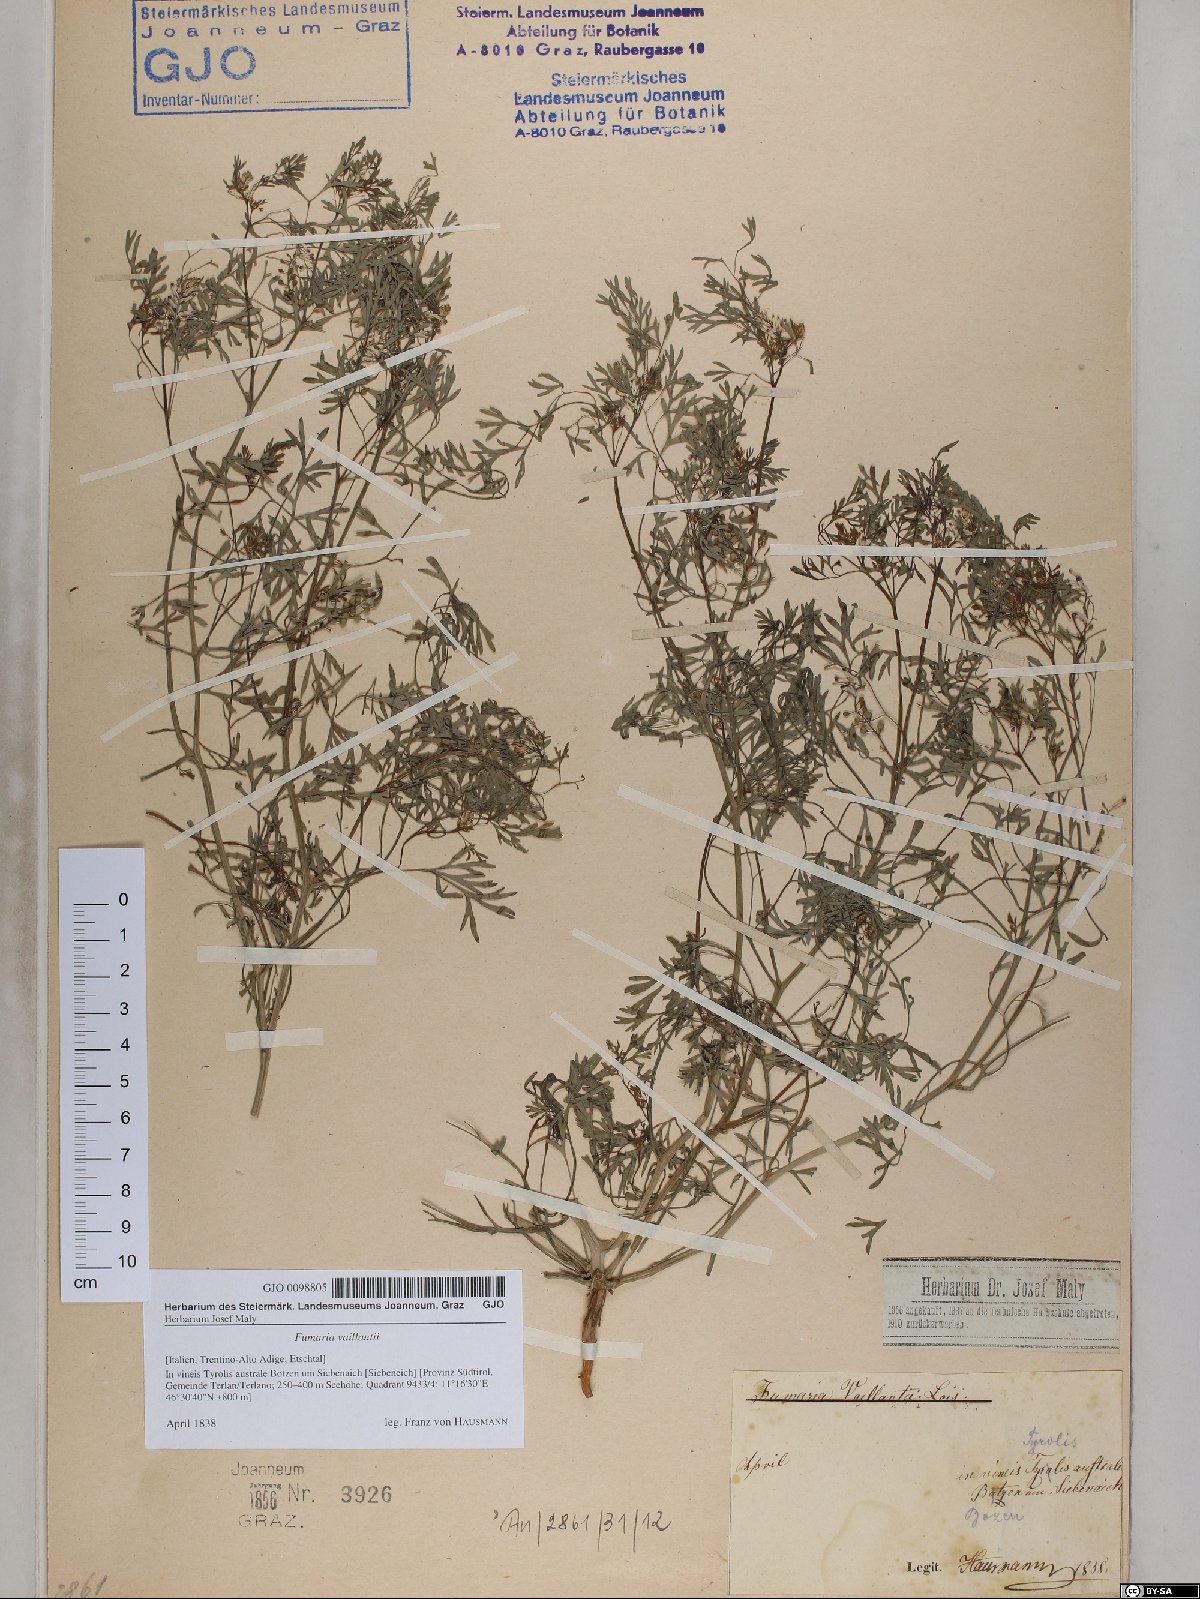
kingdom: Plantae
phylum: Tracheophyta
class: Magnoliopsida
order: Ranunculales
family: Papaveraceae
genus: Fumaria
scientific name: Fumaria vaillantii
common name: Few-flowered fumitory
